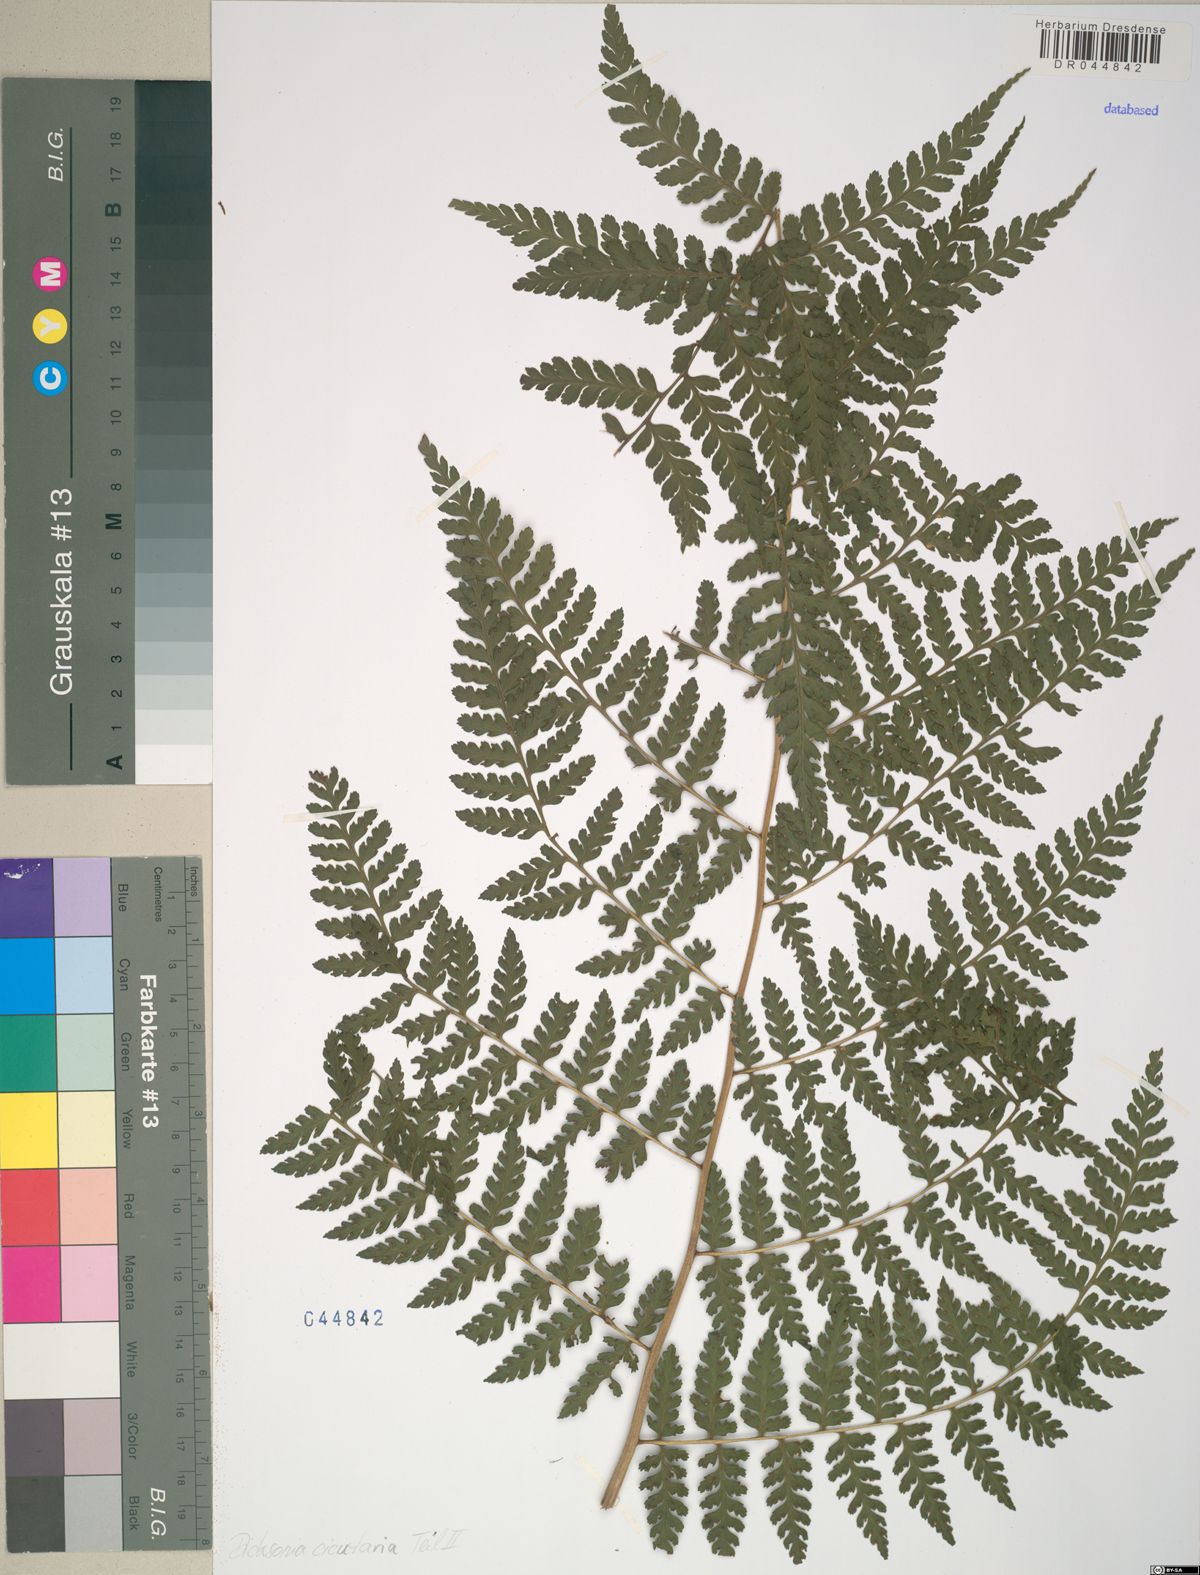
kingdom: Plantae
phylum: Tracheophyta
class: Polypodiopsida
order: Polypodiales
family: Dennstaedtiaceae
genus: Dennstaedtia
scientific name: Dennstaedtia cicutaria
